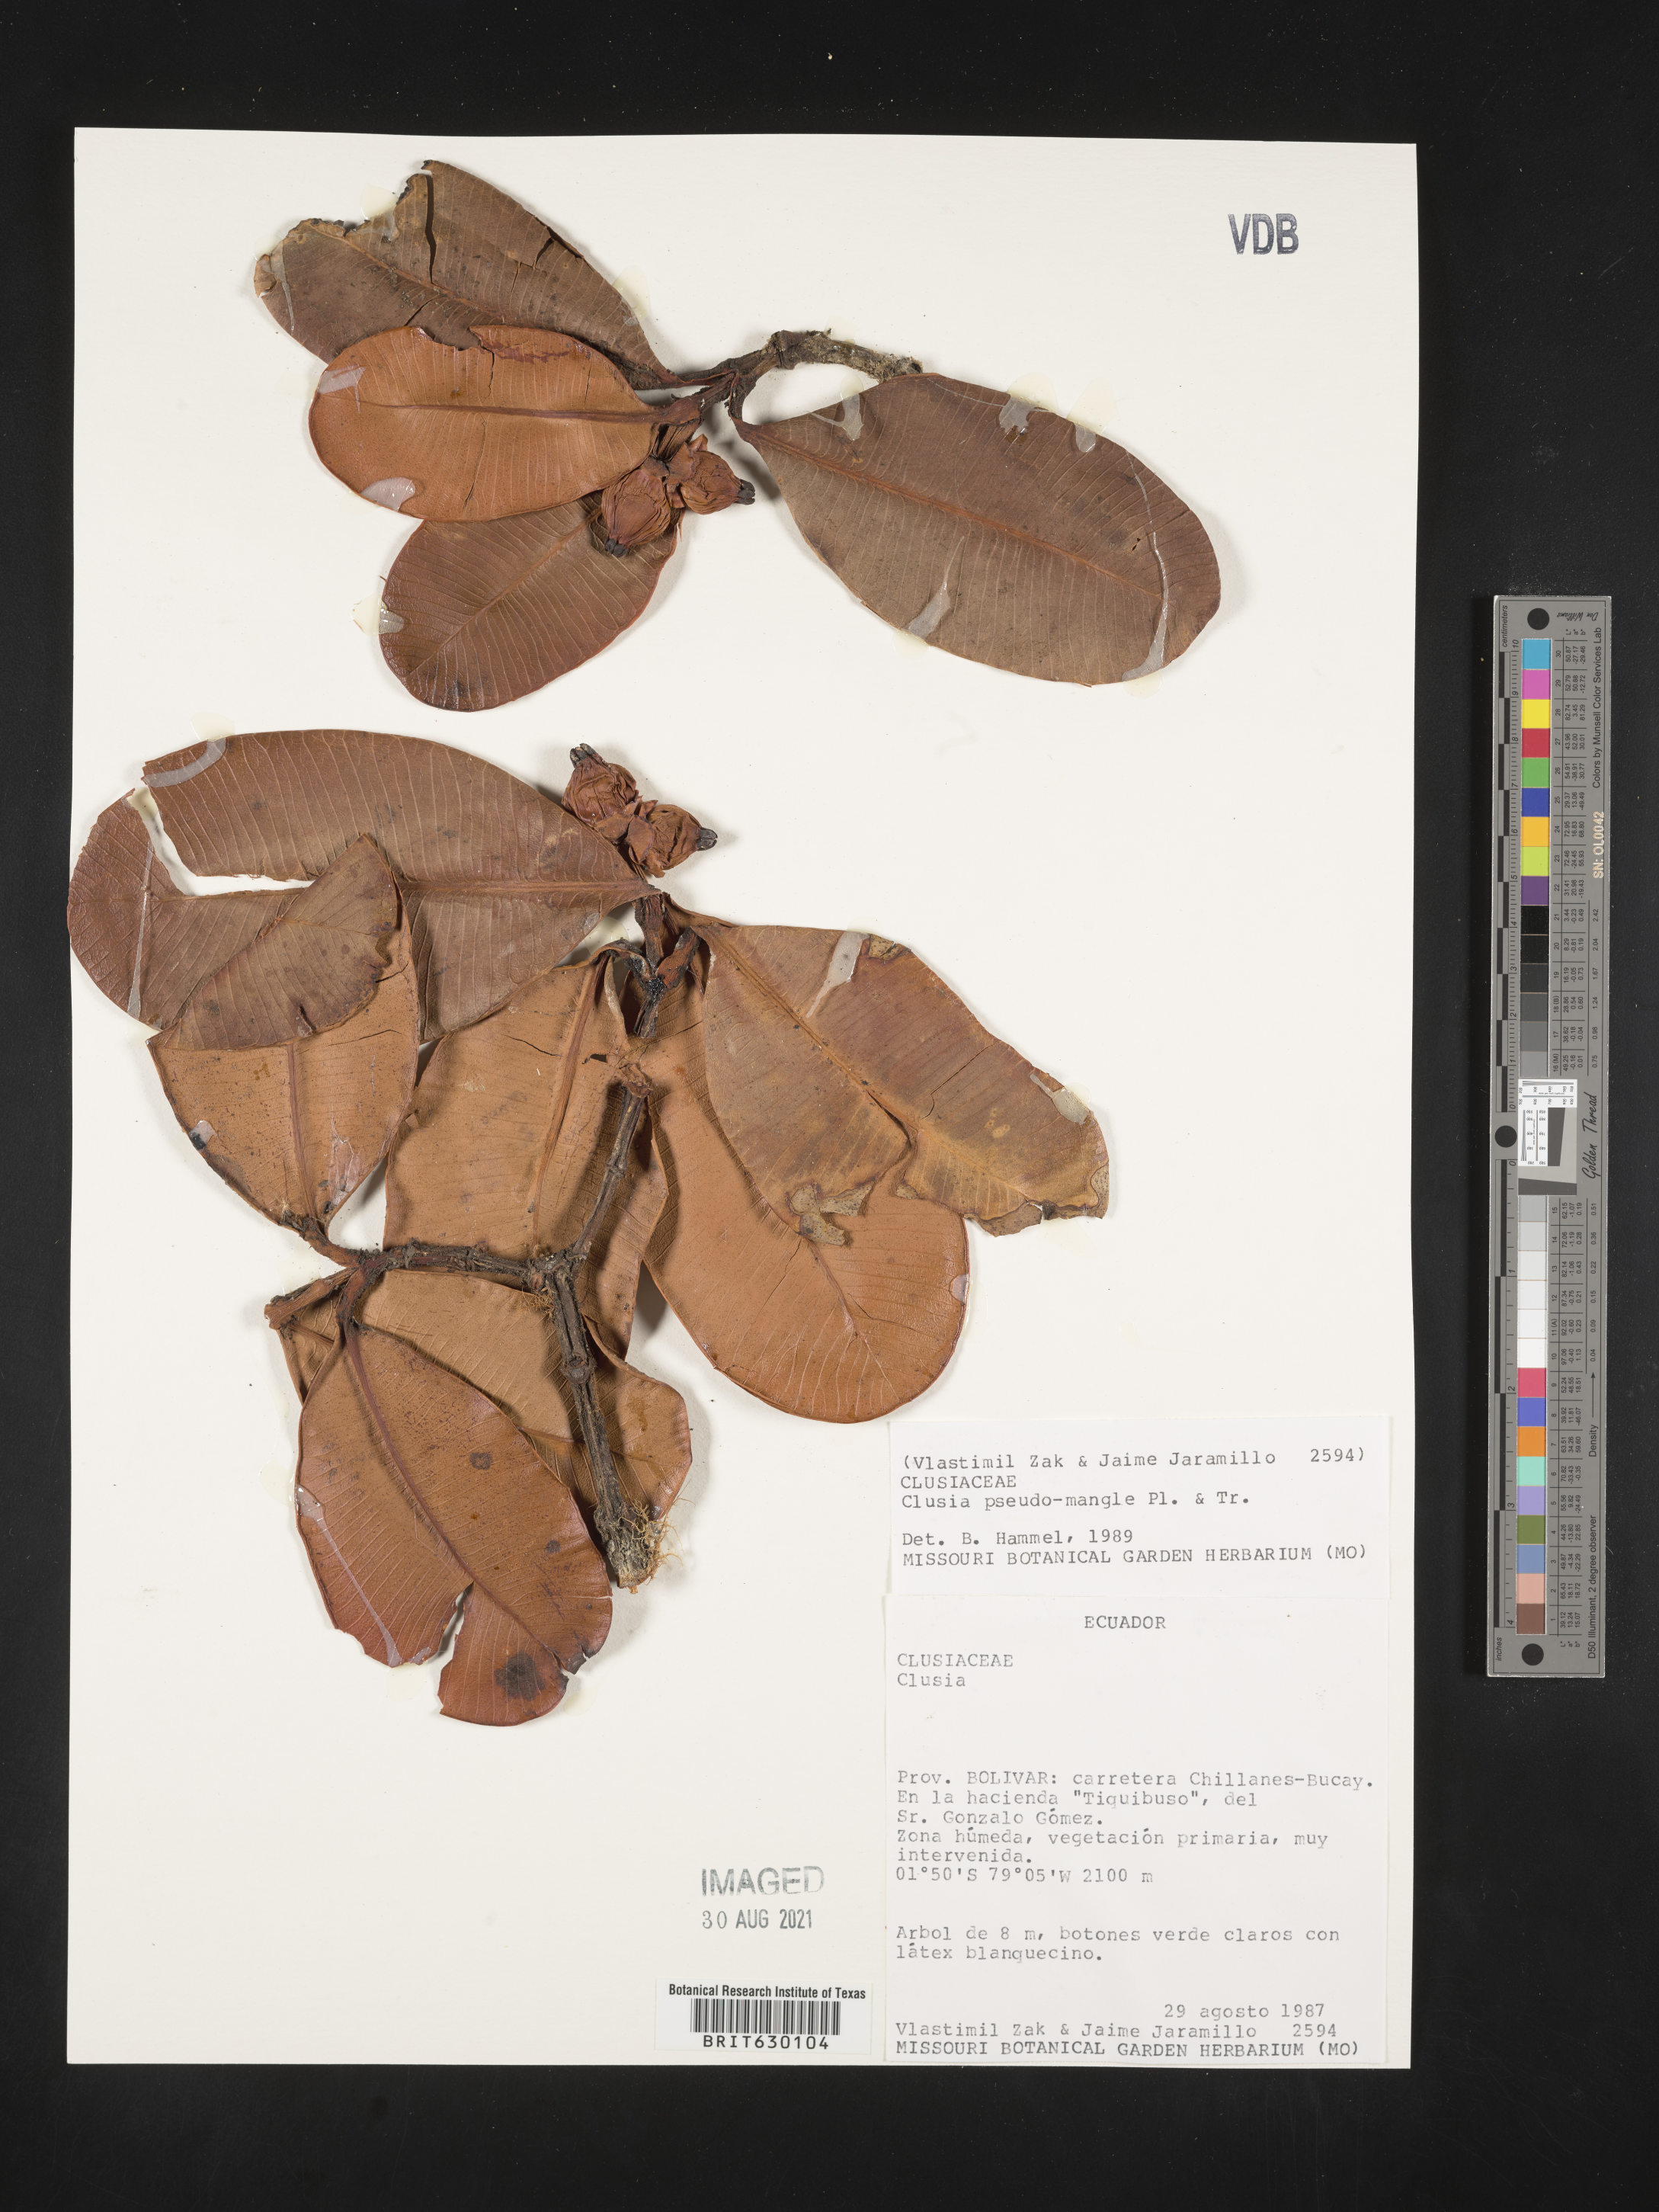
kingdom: Plantae
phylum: Tracheophyta
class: Magnoliopsida
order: Malpighiales
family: Clusiaceae
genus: Clusia
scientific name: Clusia pseudomangle
